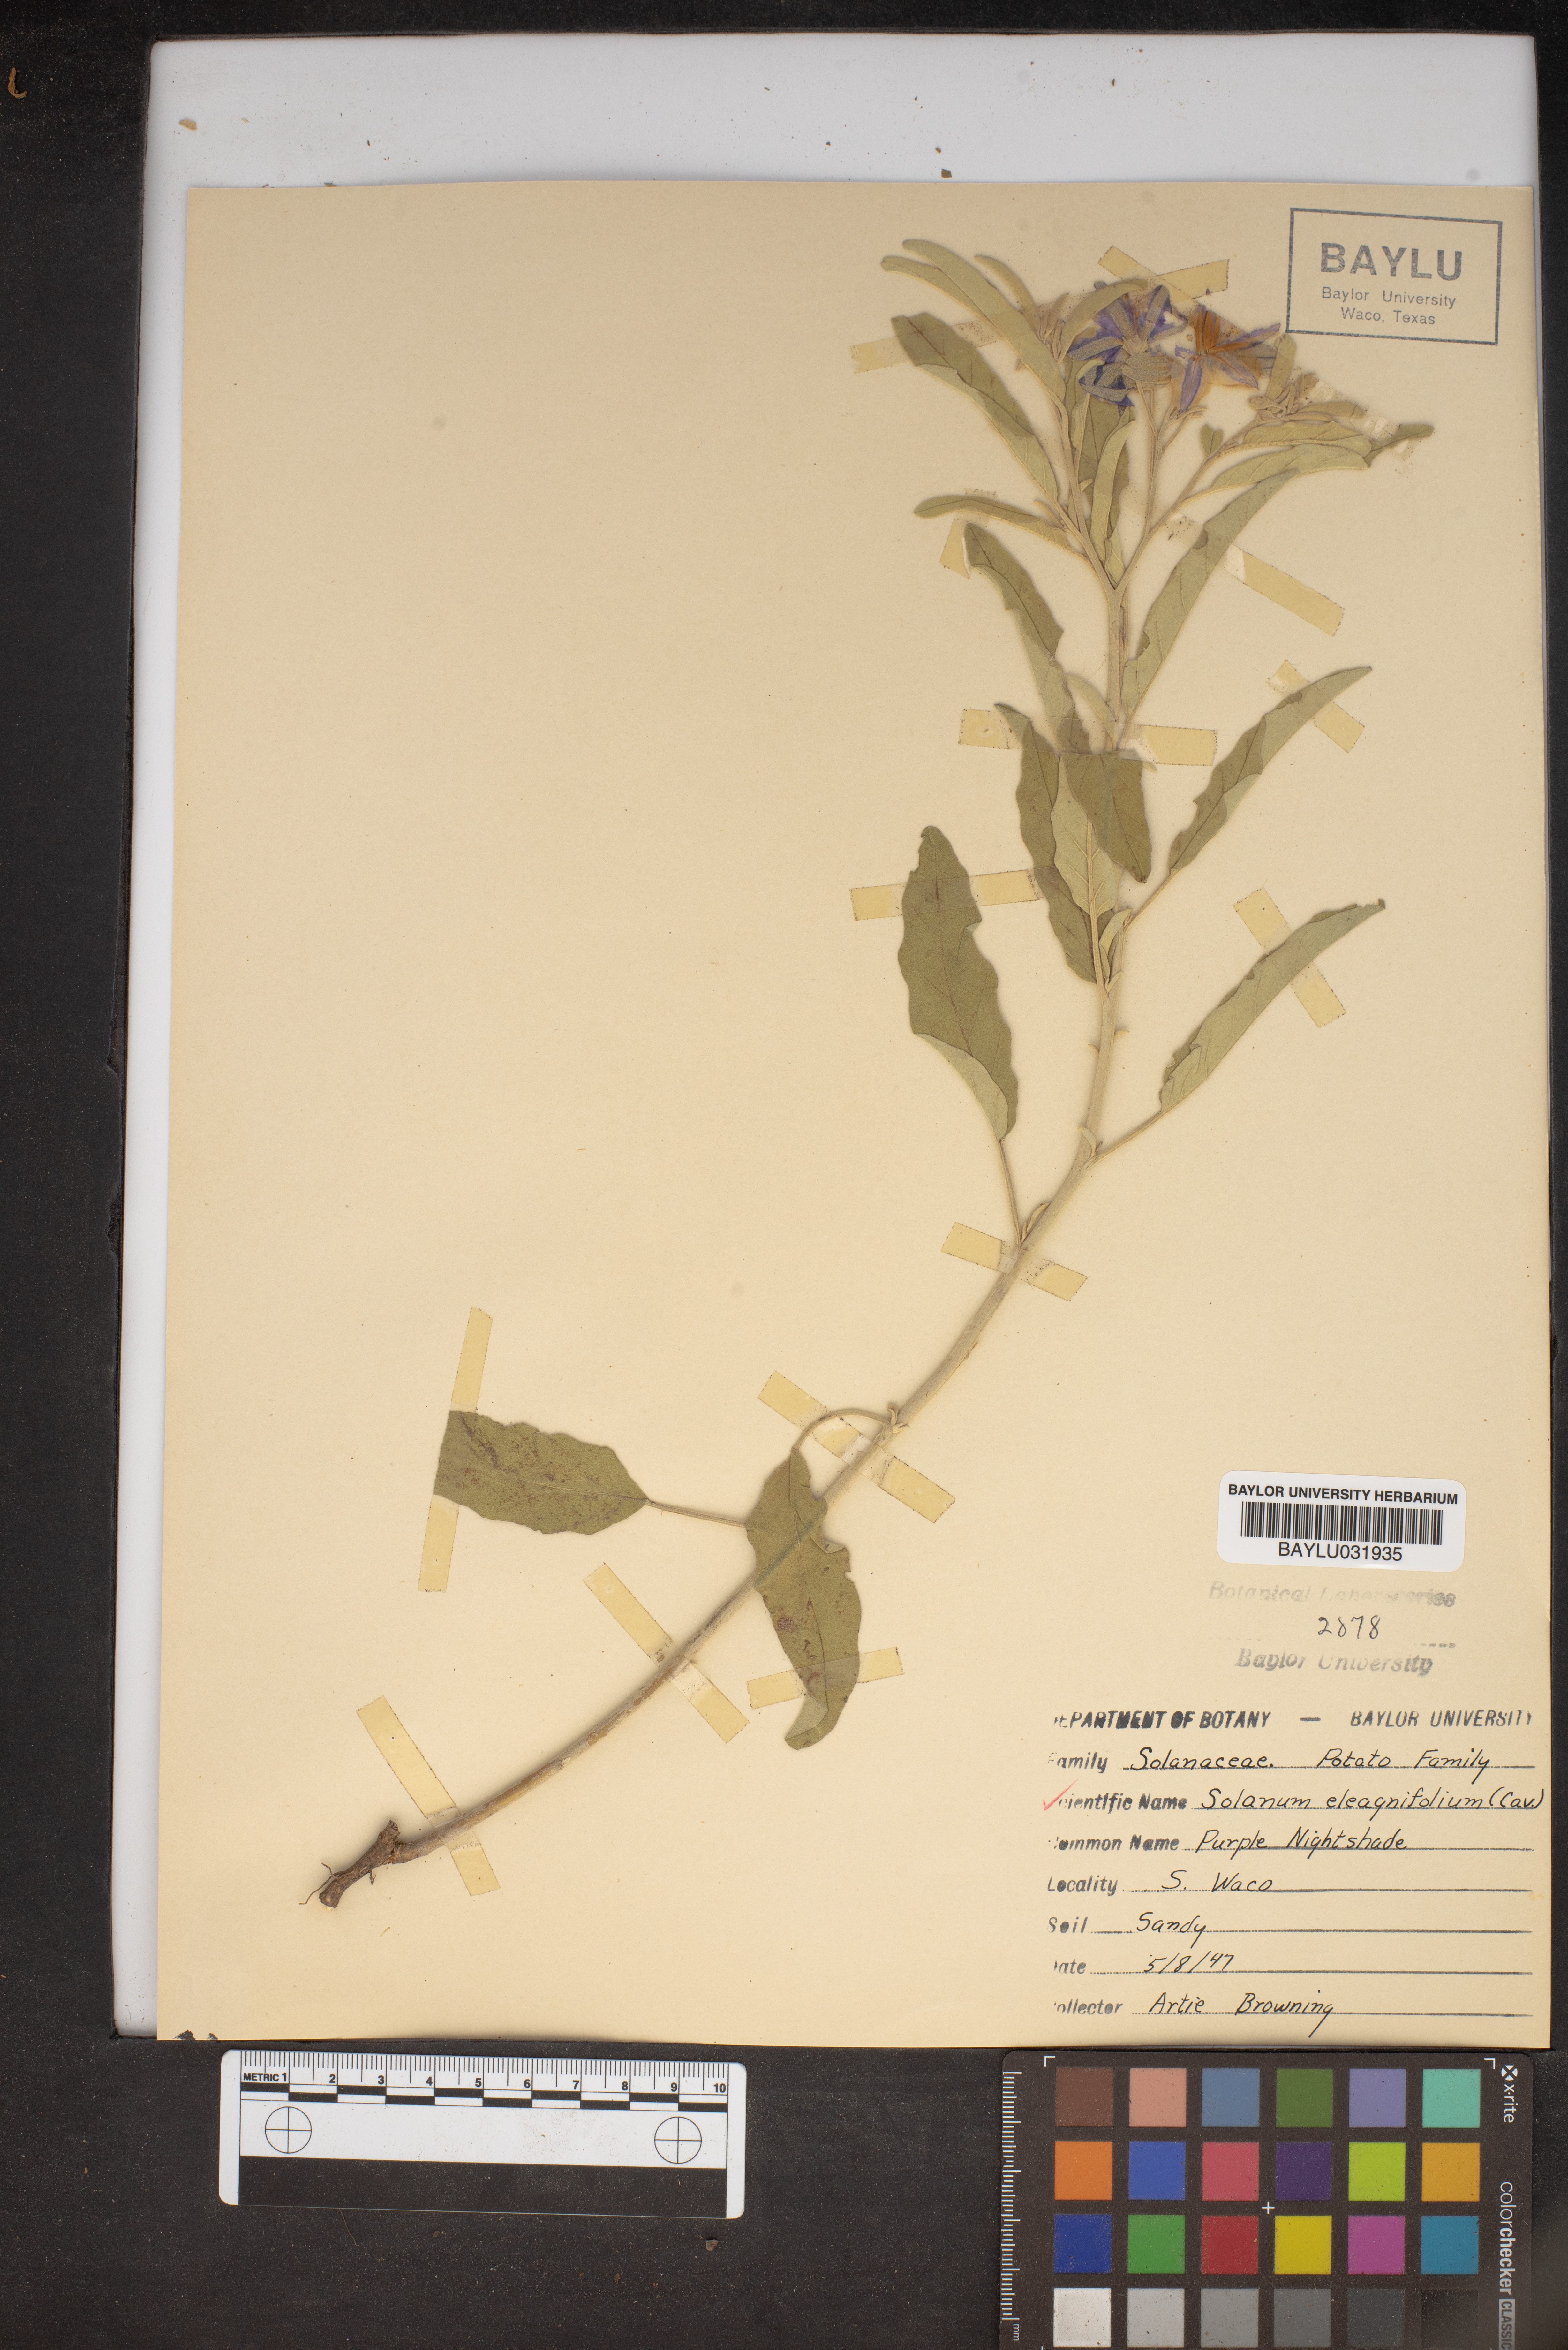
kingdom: Plantae
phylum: Tracheophyta
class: Magnoliopsida
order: Solanales
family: Solanaceae
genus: Solanum
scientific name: Solanum elaeagnifolium
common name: Silverleaf nightshade
